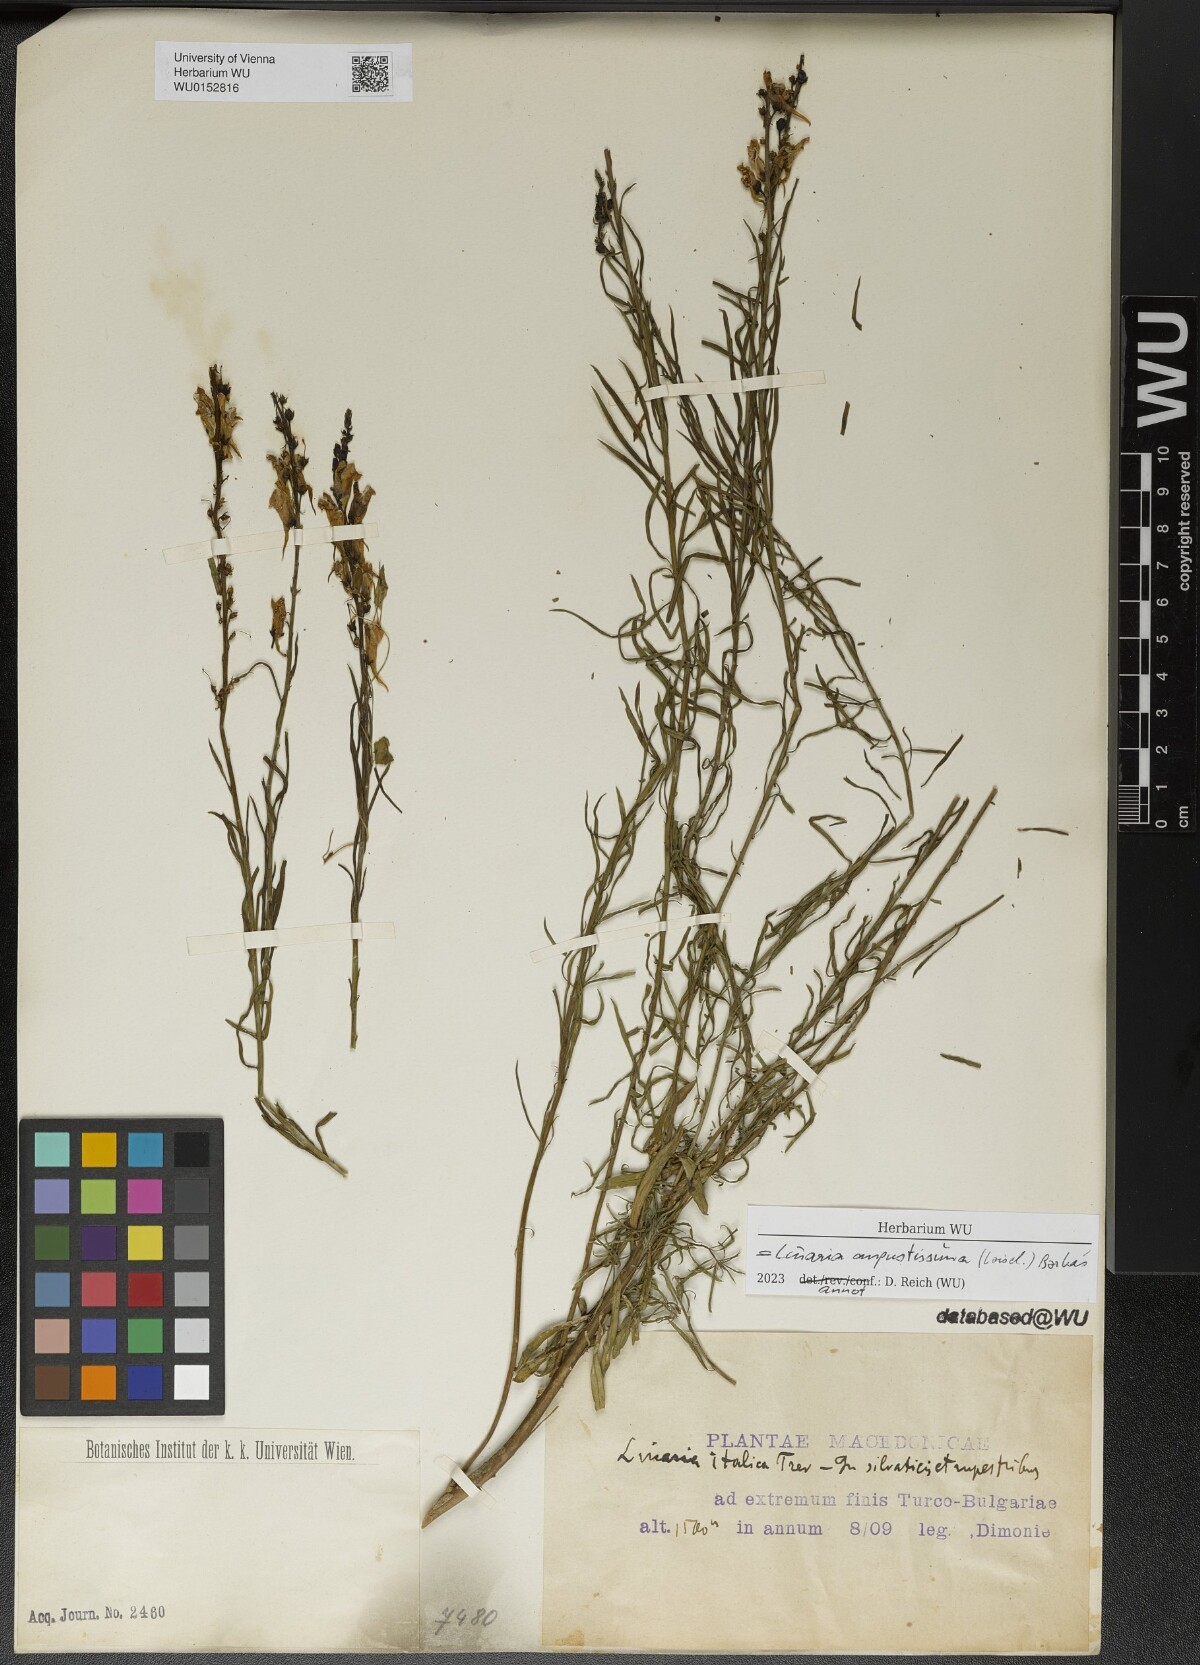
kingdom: Plantae
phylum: Tracheophyta
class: Magnoliopsida
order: Lamiales
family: Plantaginaceae
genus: Linaria
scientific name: Linaria angustissima
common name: Italian toadflax
